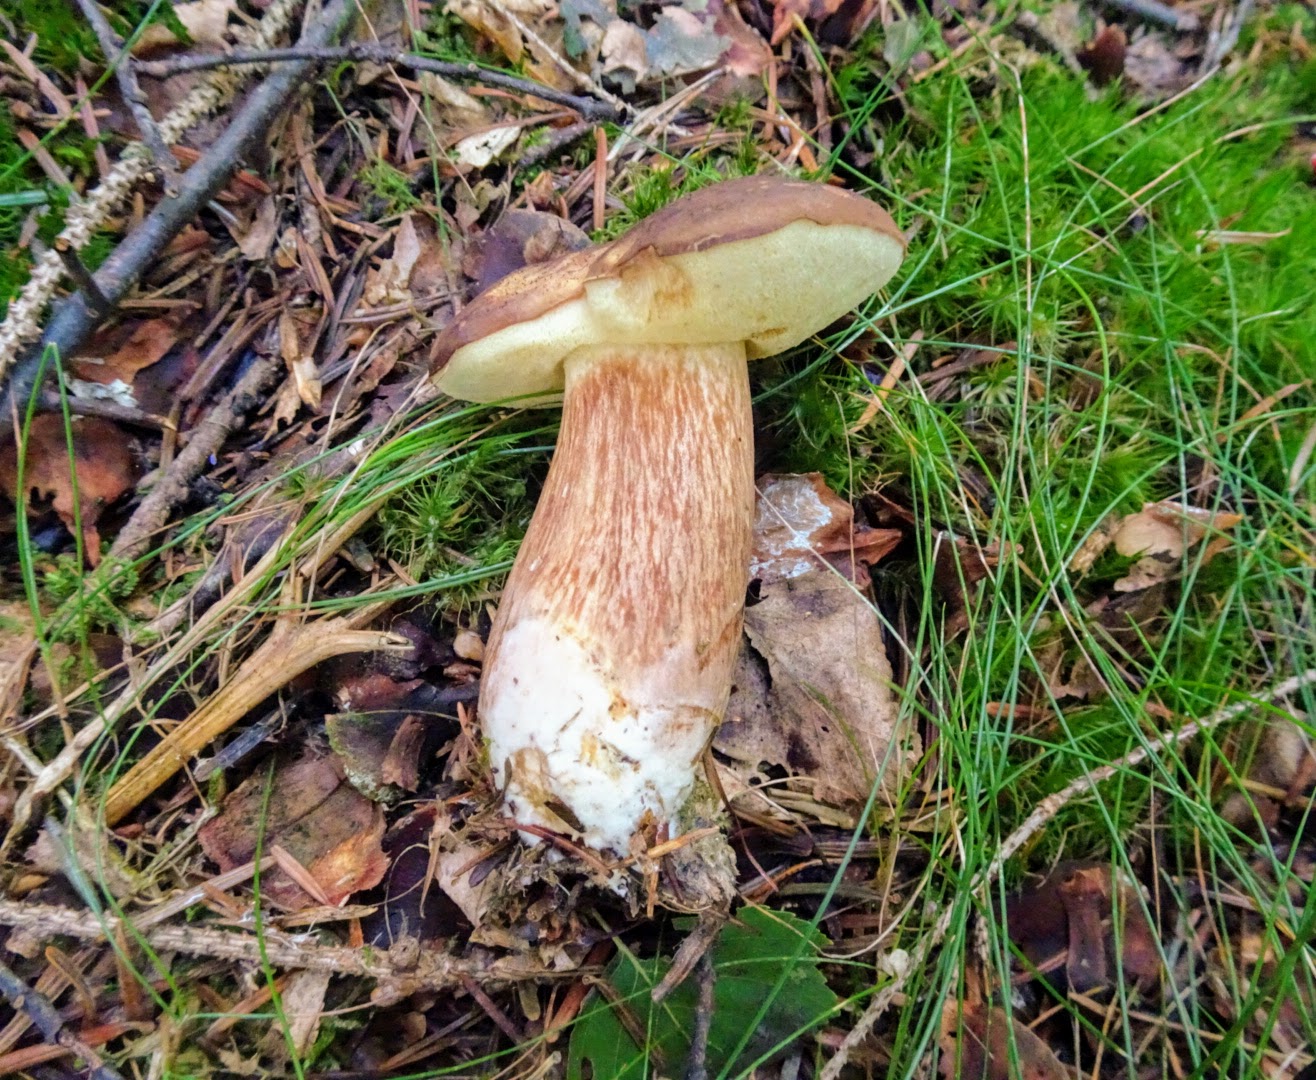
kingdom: Fungi
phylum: Basidiomycota
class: Agaricomycetes
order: Boletales
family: Boletaceae
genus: Imleria
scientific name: Imleria badia
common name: brunstokket rørhat
